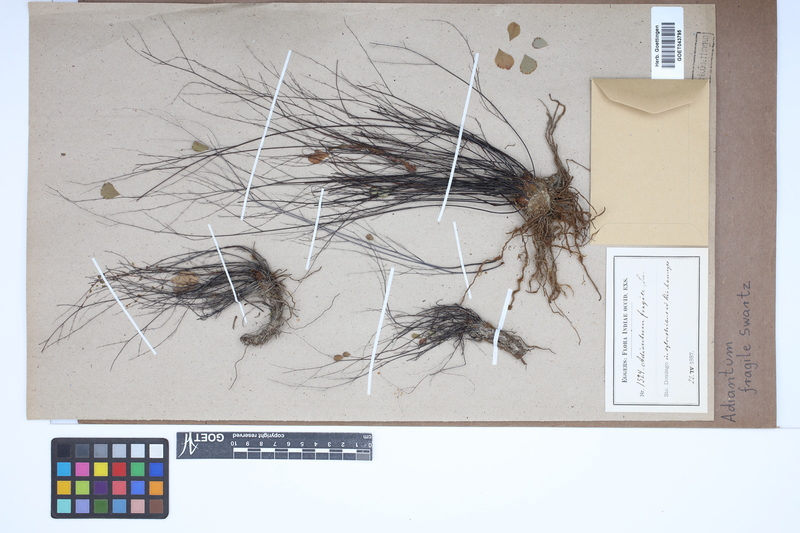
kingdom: Plantae
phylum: Tracheophyta
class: Polypodiopsida
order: Polypodiales
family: Pteridaceae
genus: Adiantum
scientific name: Adiantum fragile
